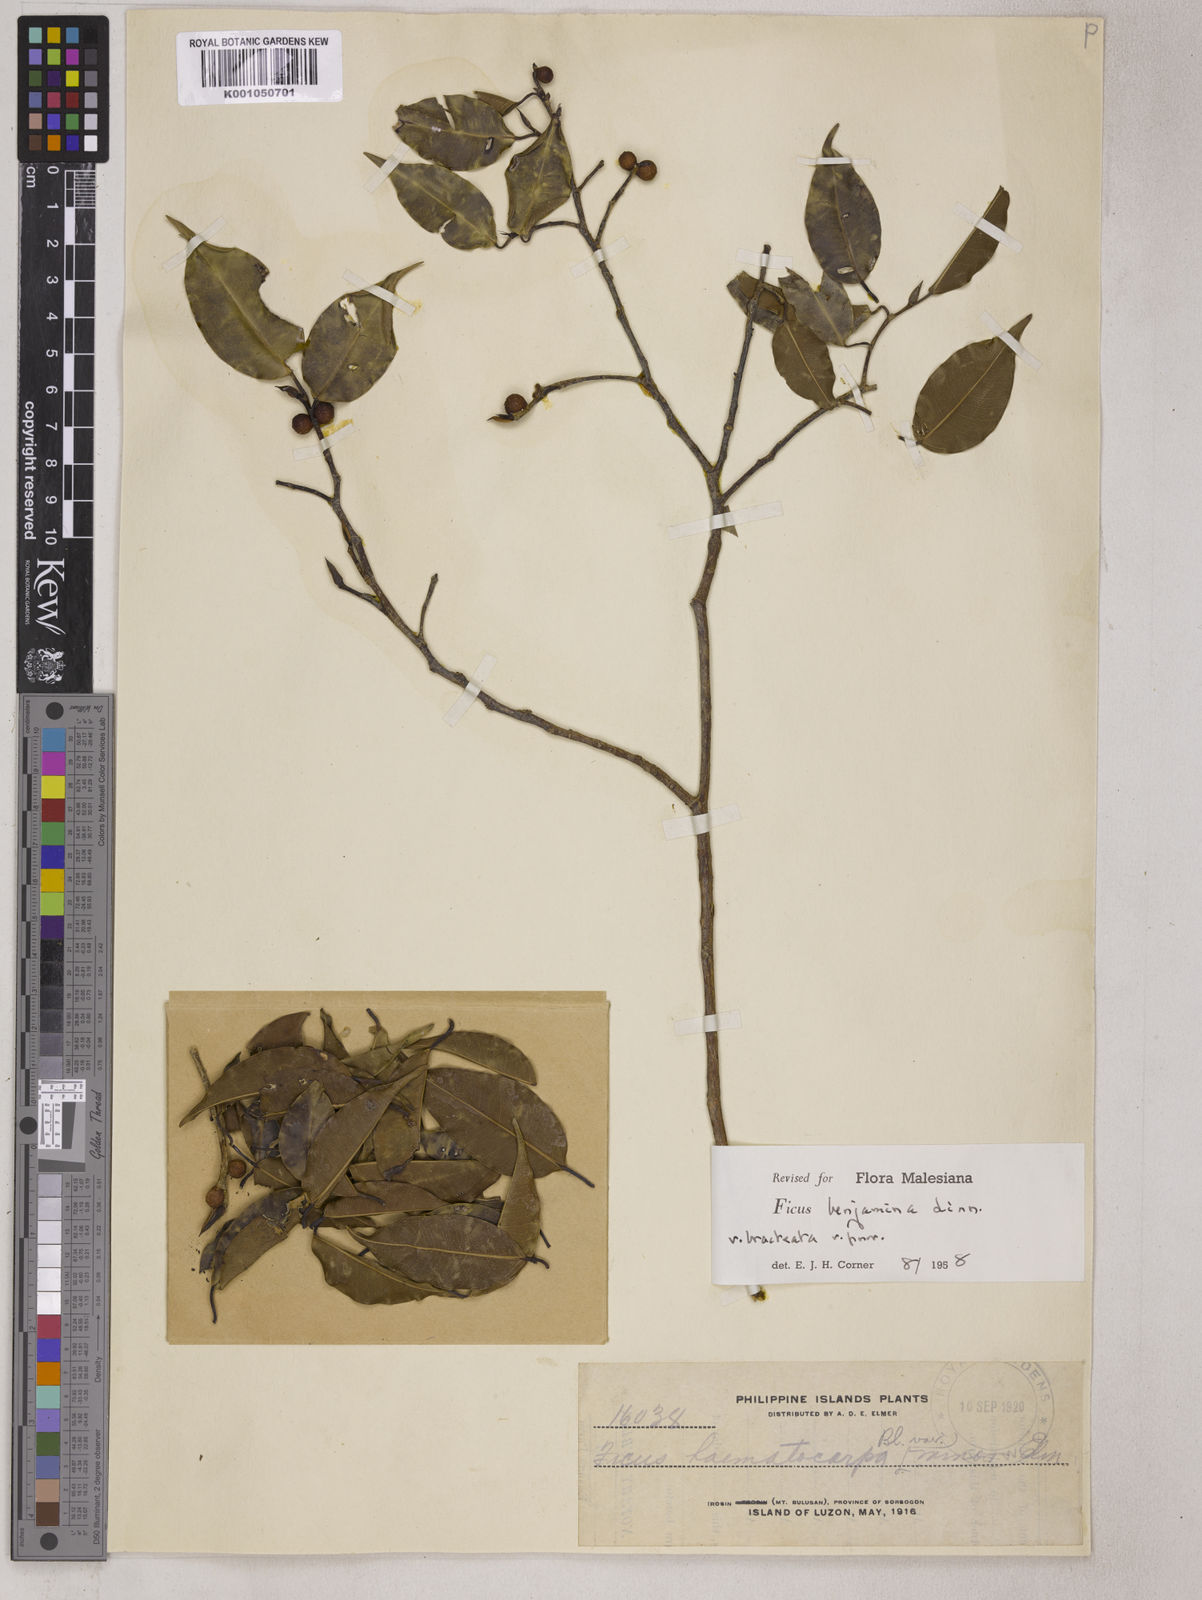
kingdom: Plantae
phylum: Tracheophyta
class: Magnoliopsida
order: Rosales
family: Moraceae
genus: Ficus
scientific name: Ficus benjamina
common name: Weeping fig
